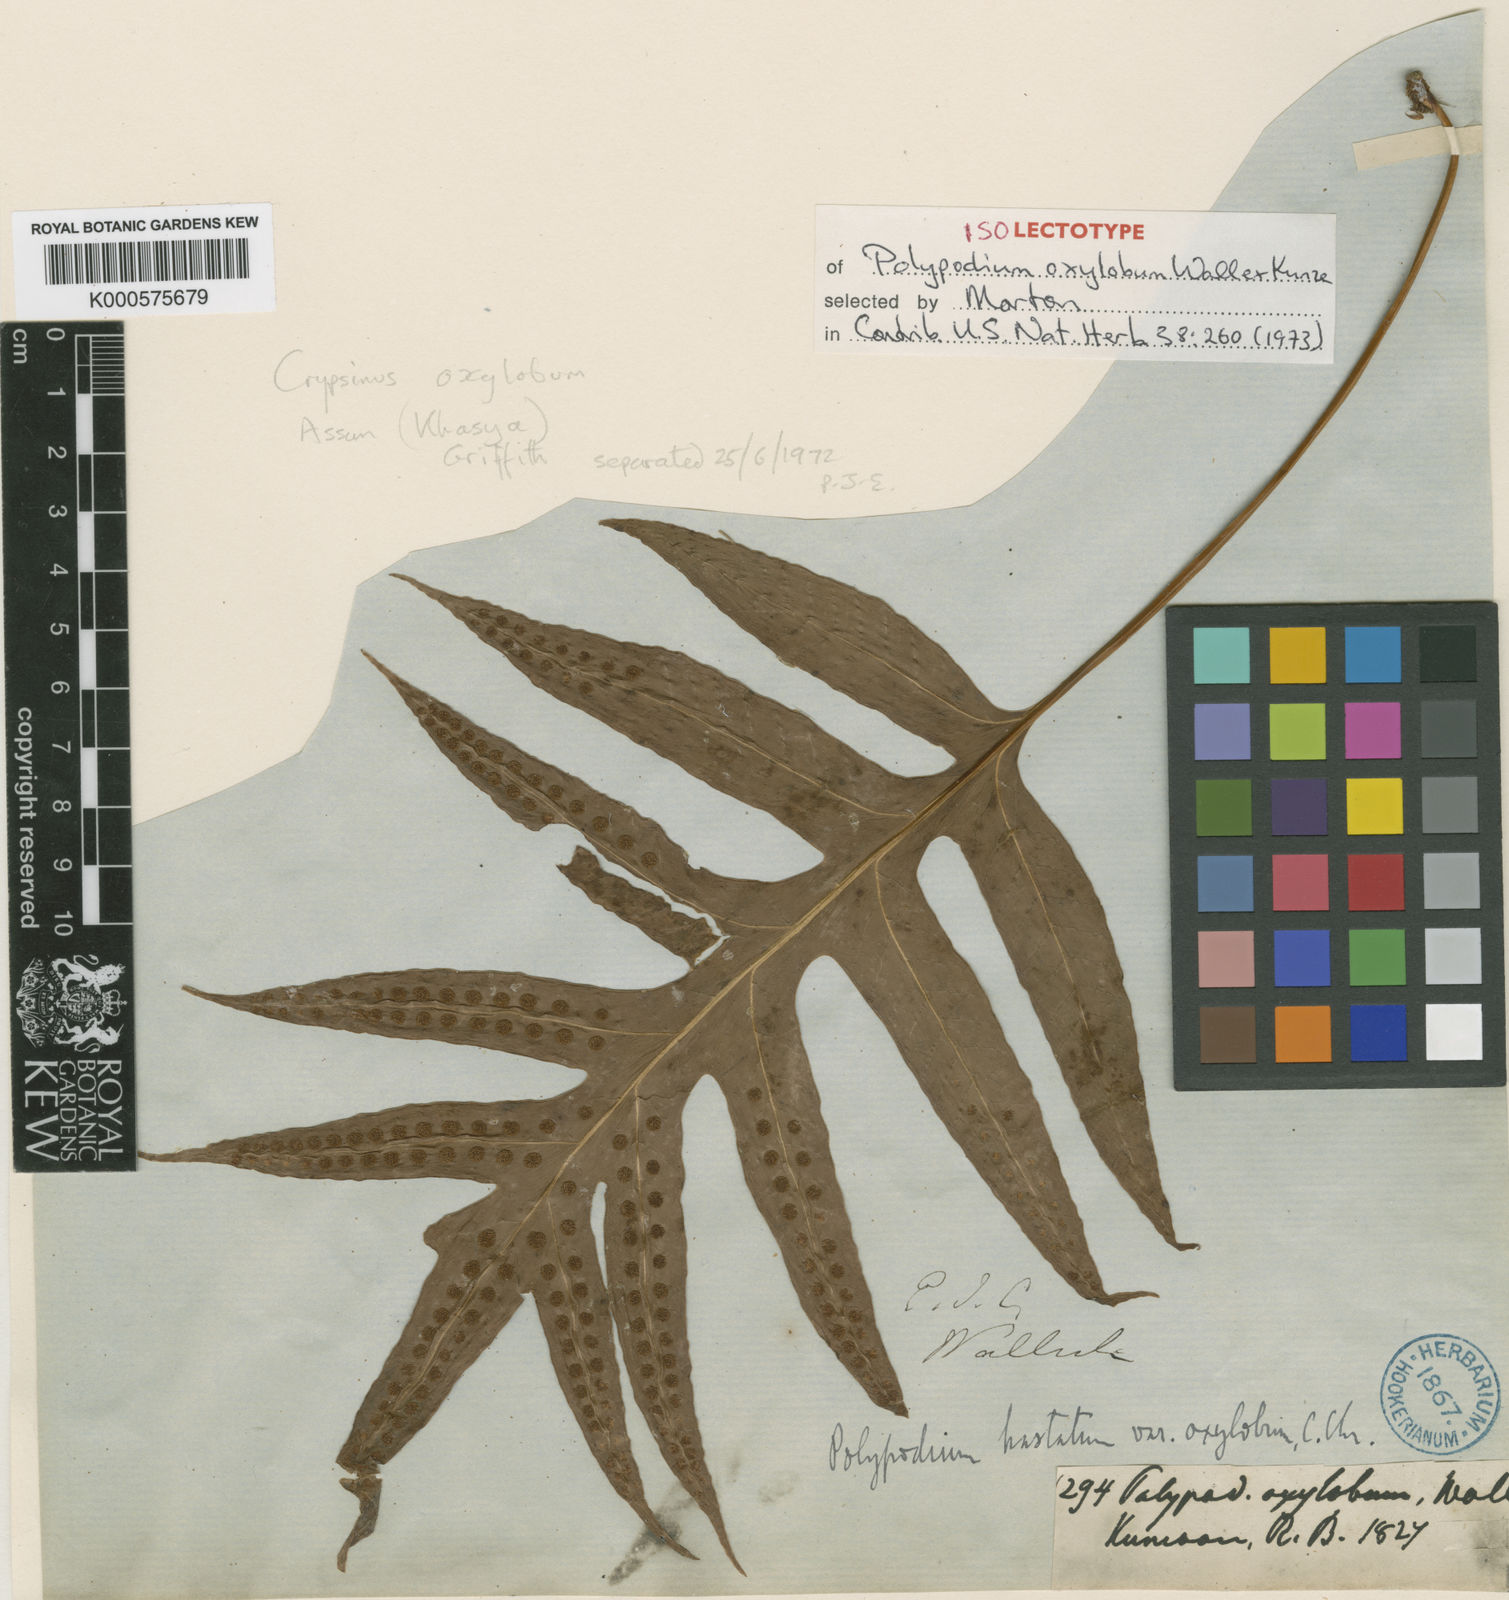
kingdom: Plantae
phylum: Tracheophyta
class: Polypodiopsida
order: Polypodiales
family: Polypodiaceae
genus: Selliguea
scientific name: Selliguea oxyloba
